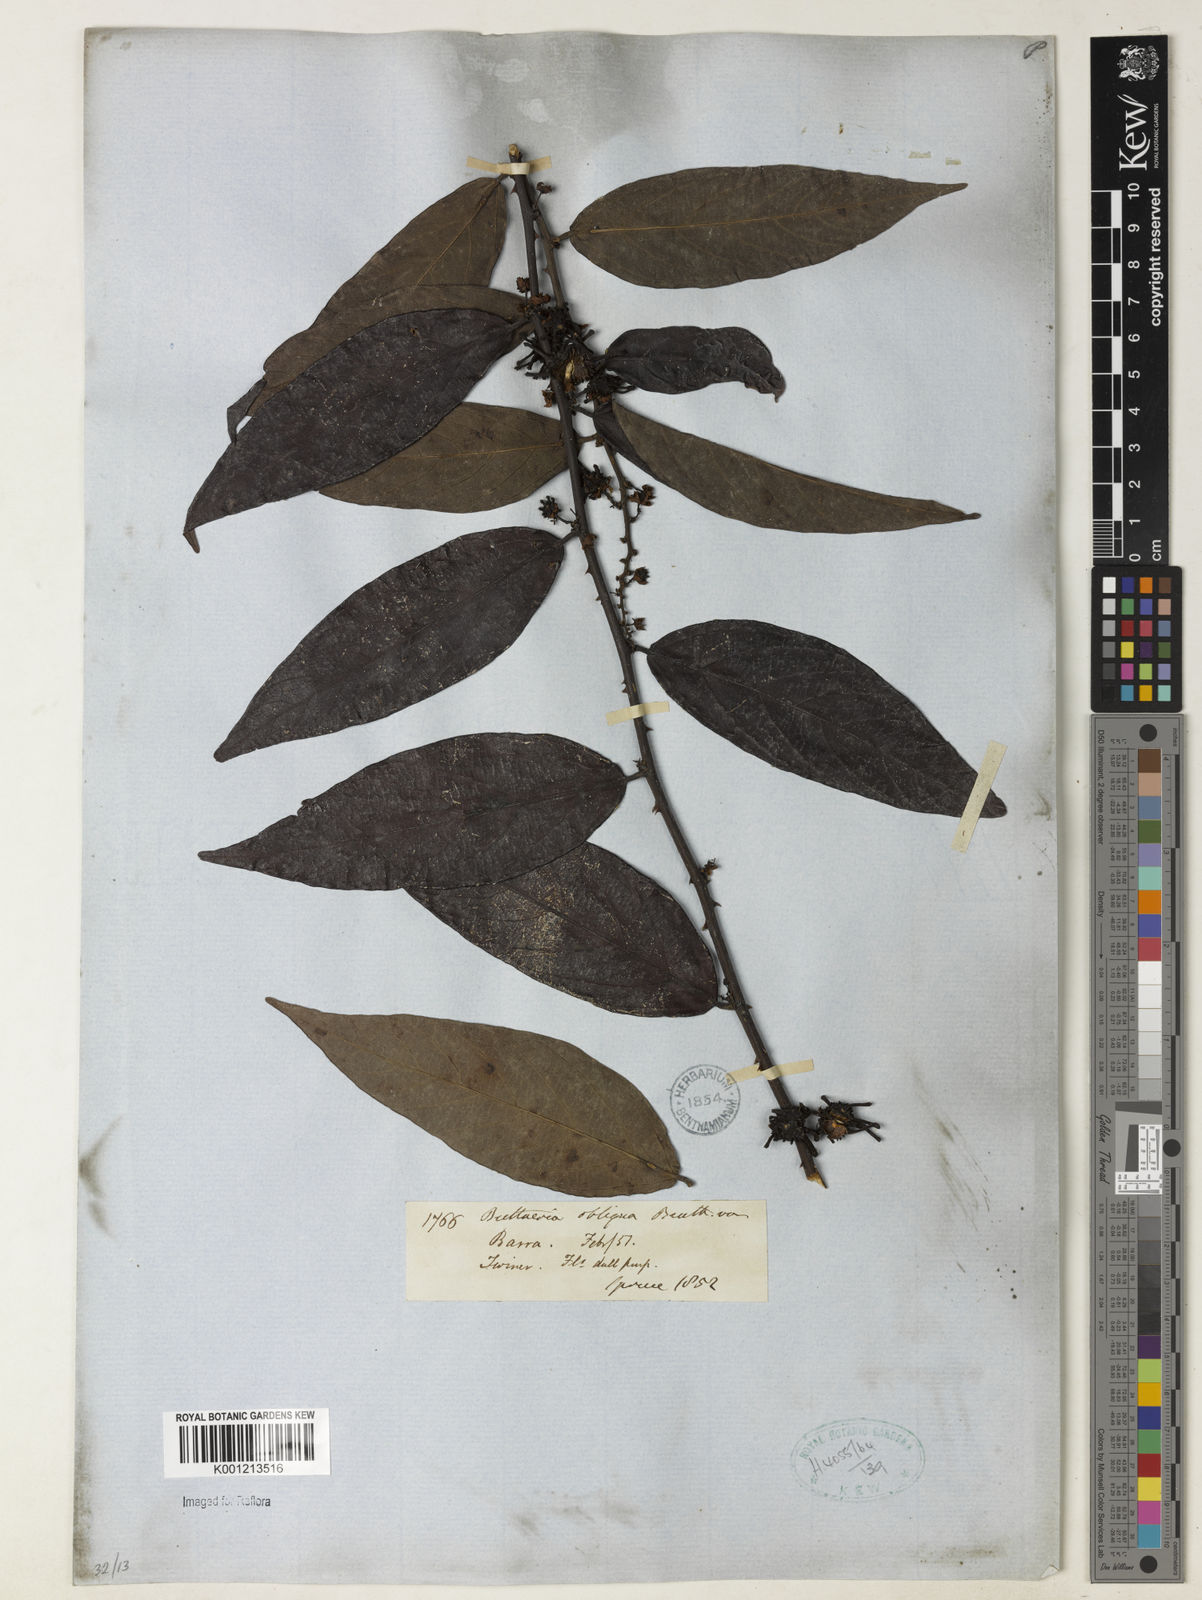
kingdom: Plantae
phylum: Tracheophyta
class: Magnoliopsida
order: Malvales
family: Malvaceae
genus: Byttneria
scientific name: Byttneria obliqua
